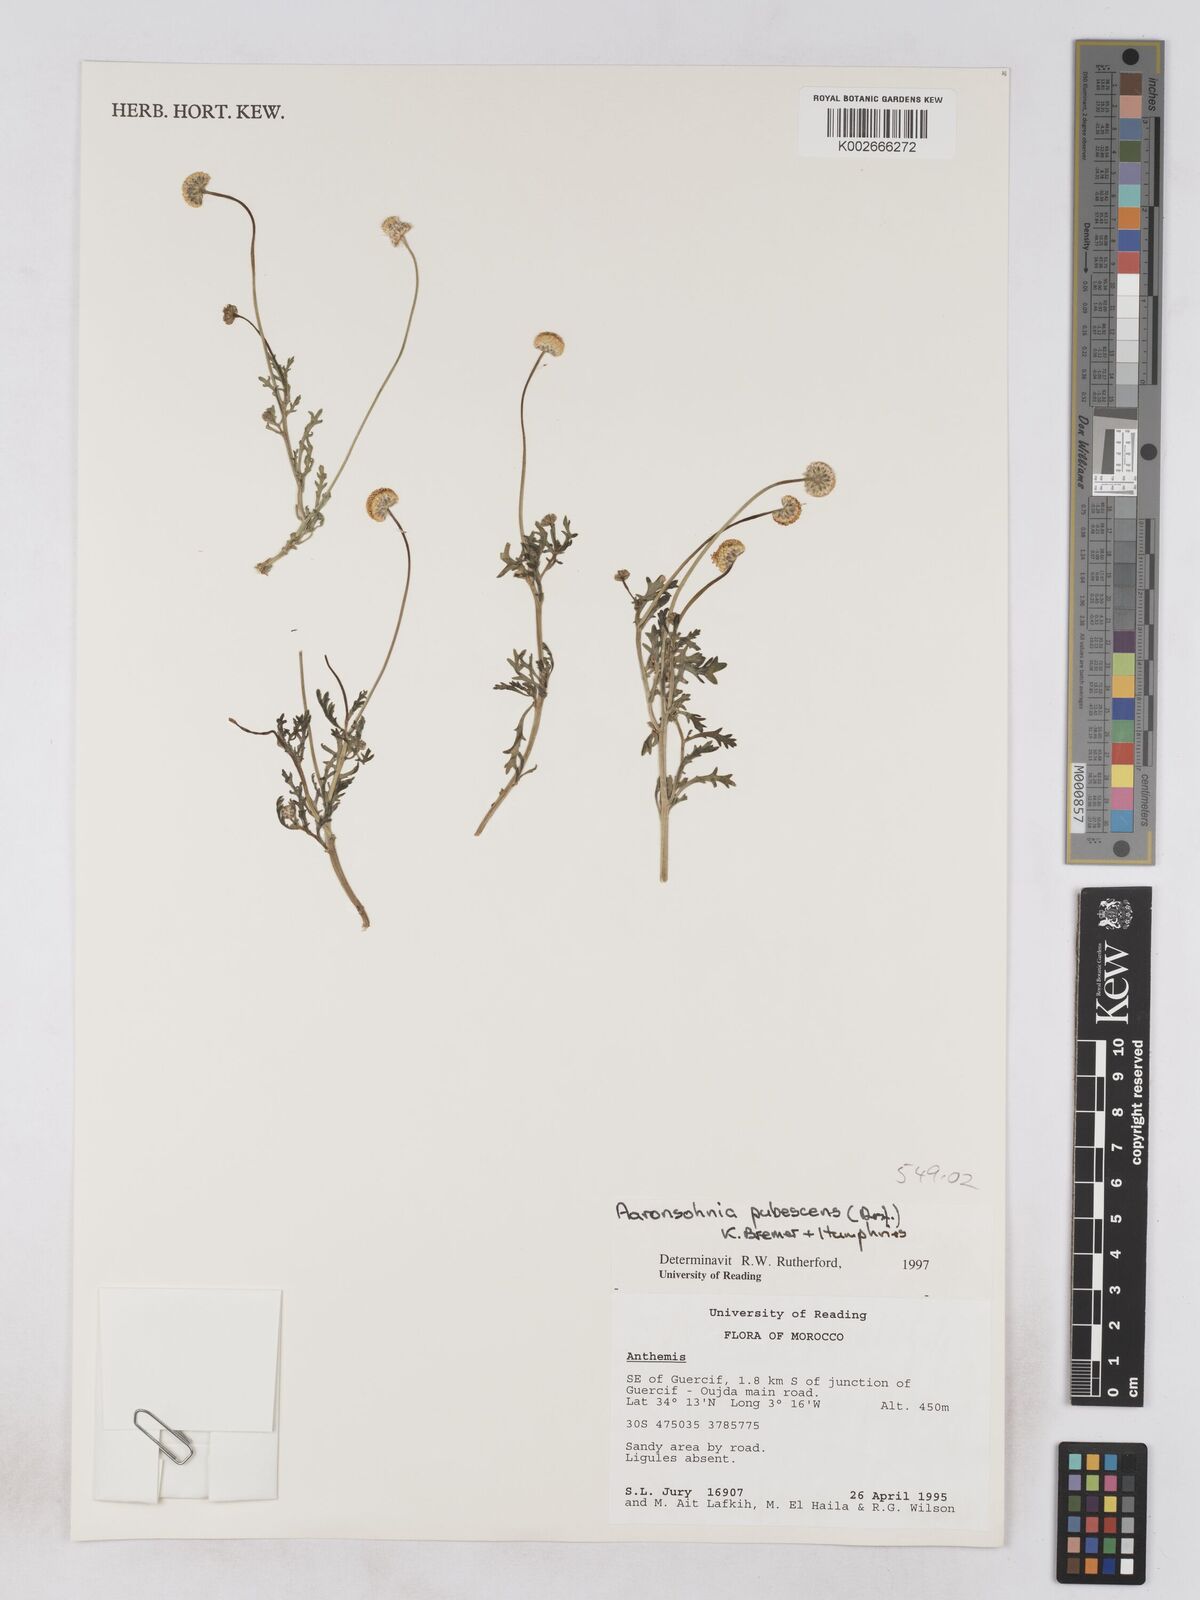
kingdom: Plantae
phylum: Tracheophyta
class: Magnoliopsida
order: Asterales
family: Asteraceae
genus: Otoglyphis
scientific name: Otoglyphis pubescens
